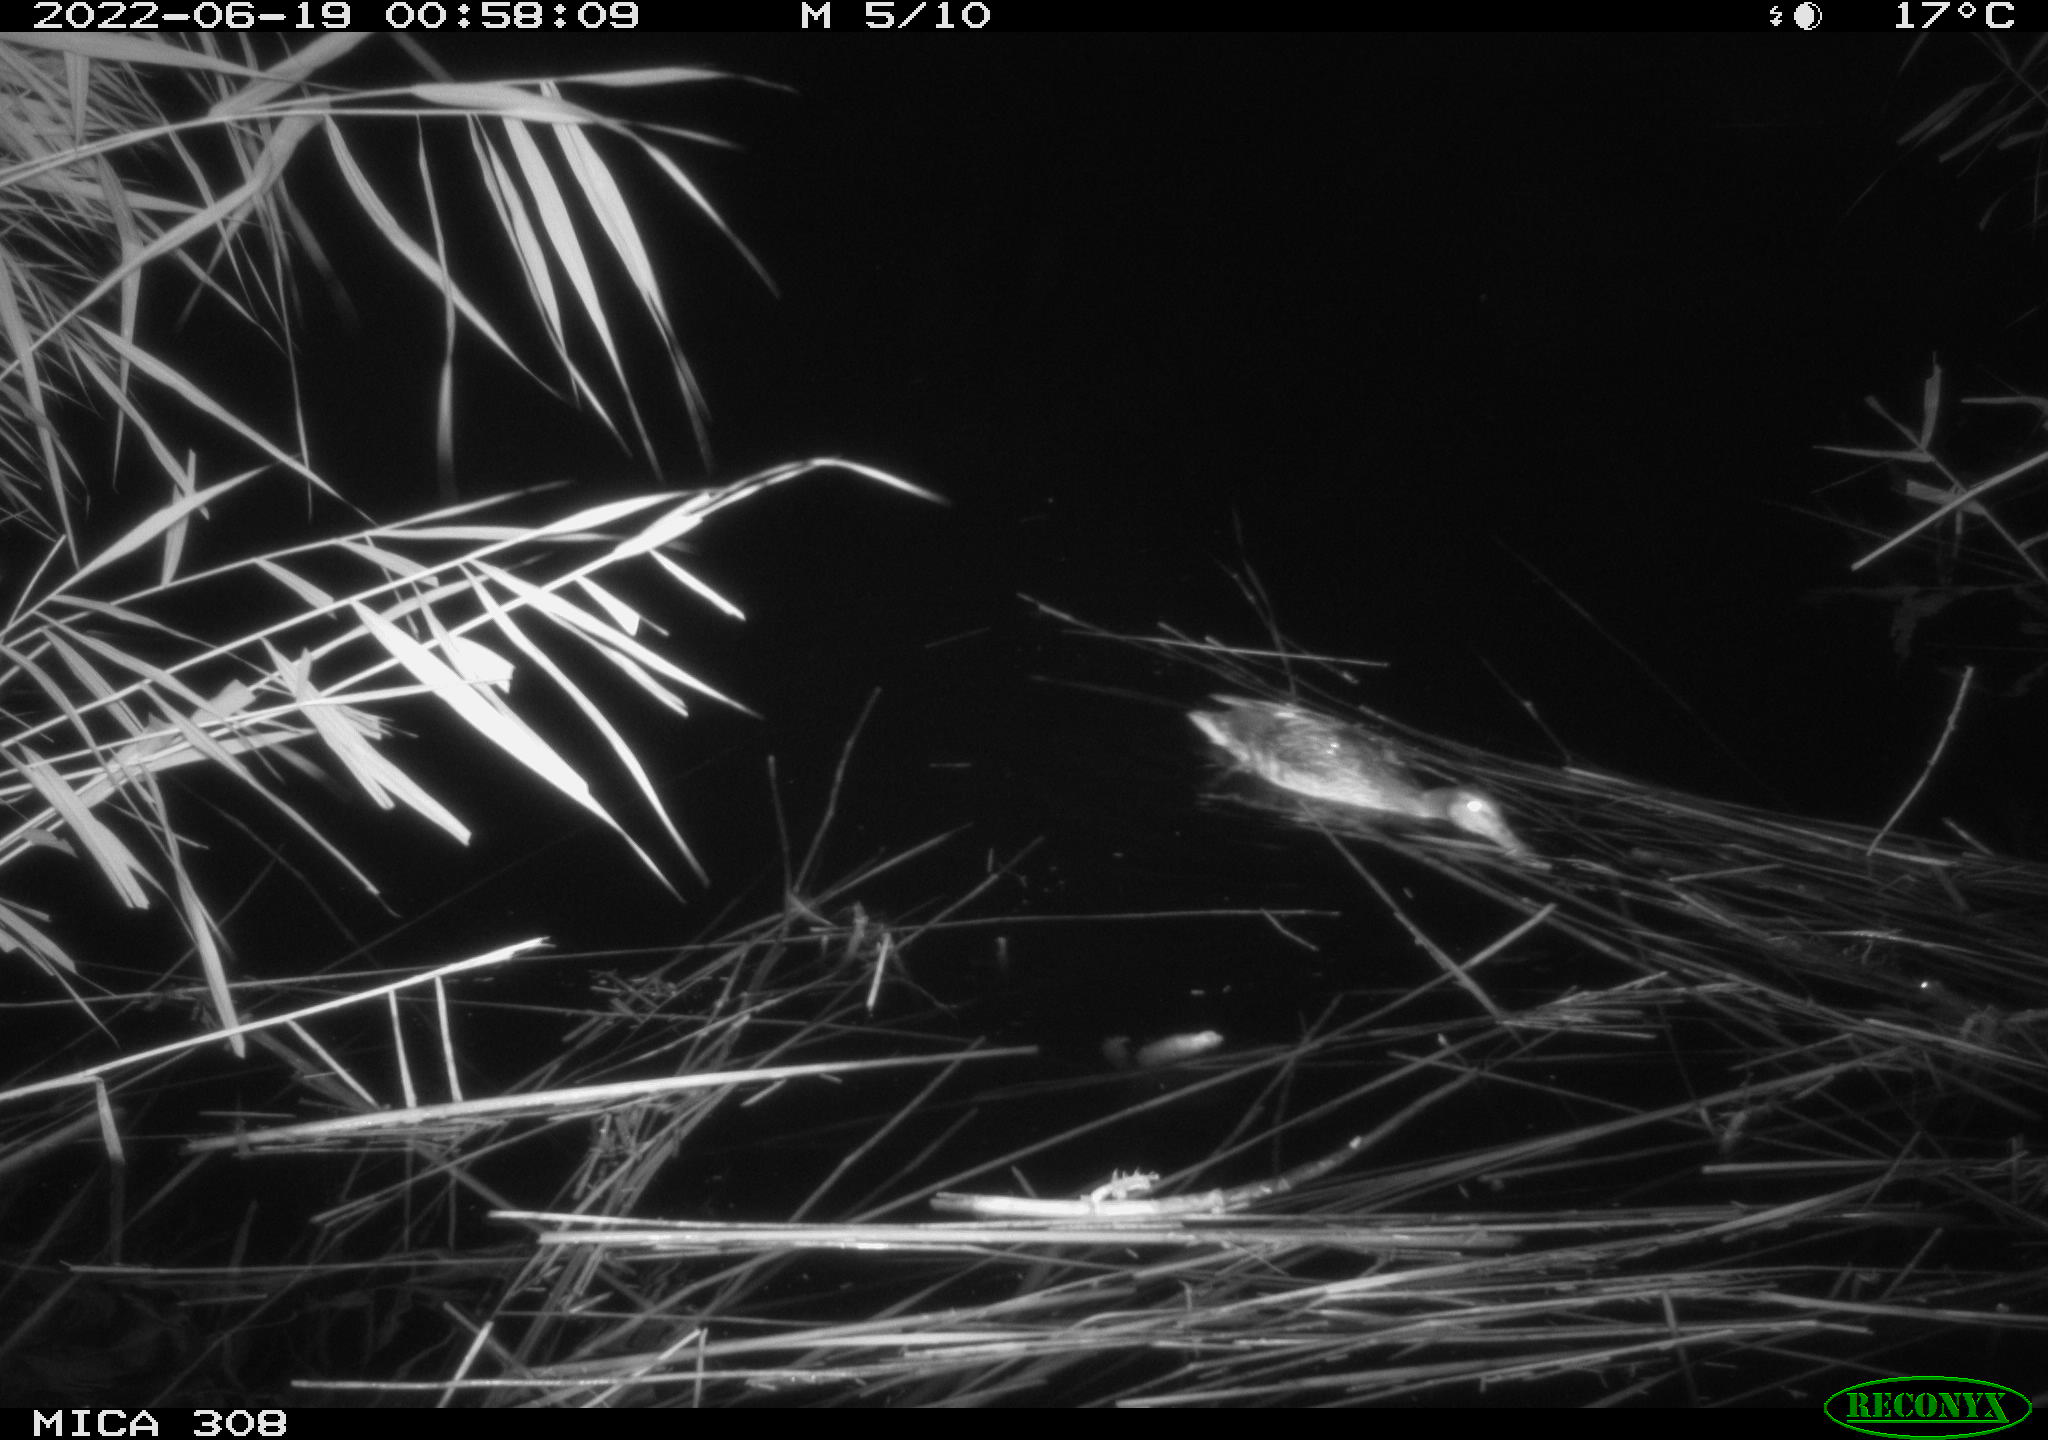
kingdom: Animalia
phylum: Chordata
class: Aves
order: Anseriformes
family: Anatidae
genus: Anas
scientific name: Anas platyrhynchos
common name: Mallard
